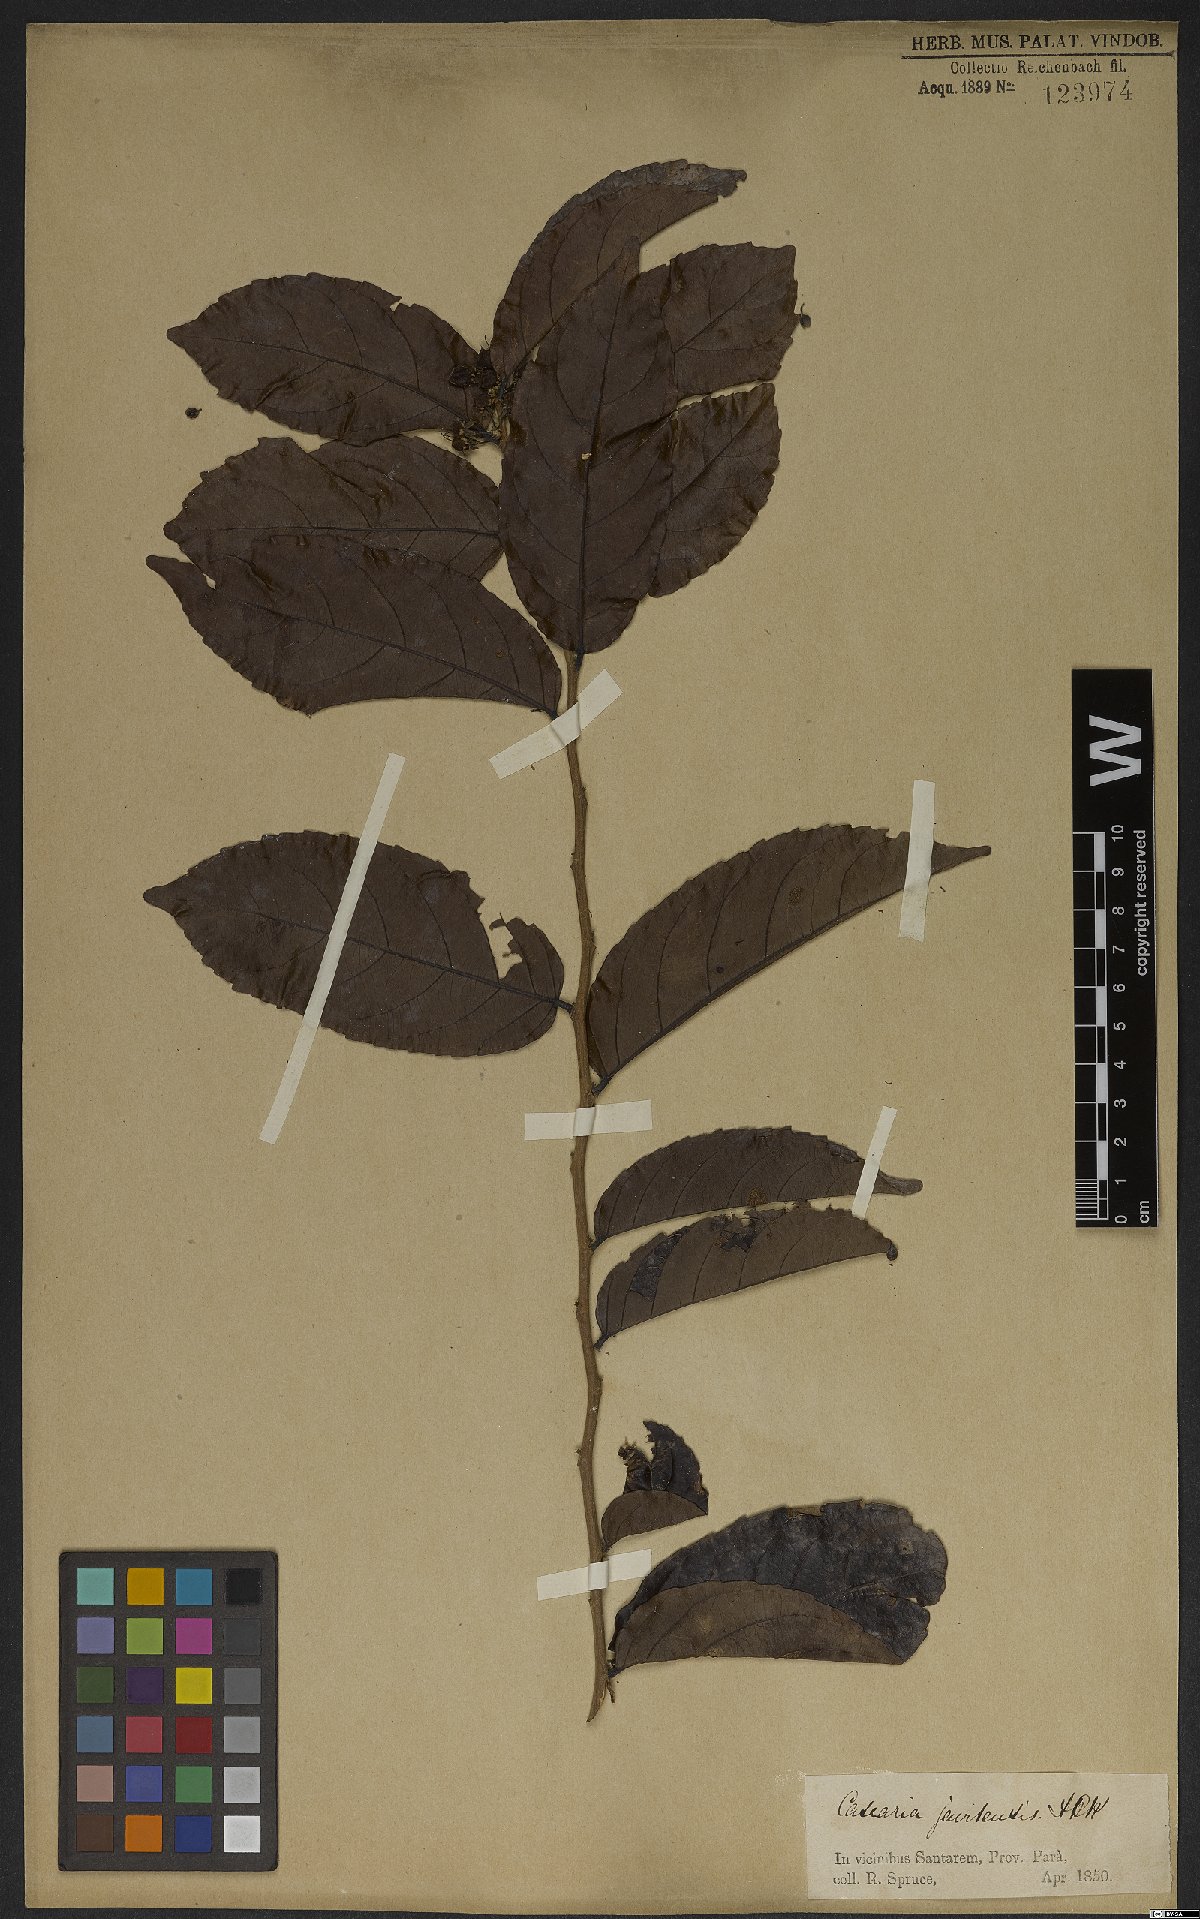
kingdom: Plantae
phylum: Tracheophyta
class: Magnoliopsida
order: Malpighiales
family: Salicaceae
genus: Piparea
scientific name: Piparea multiflora
